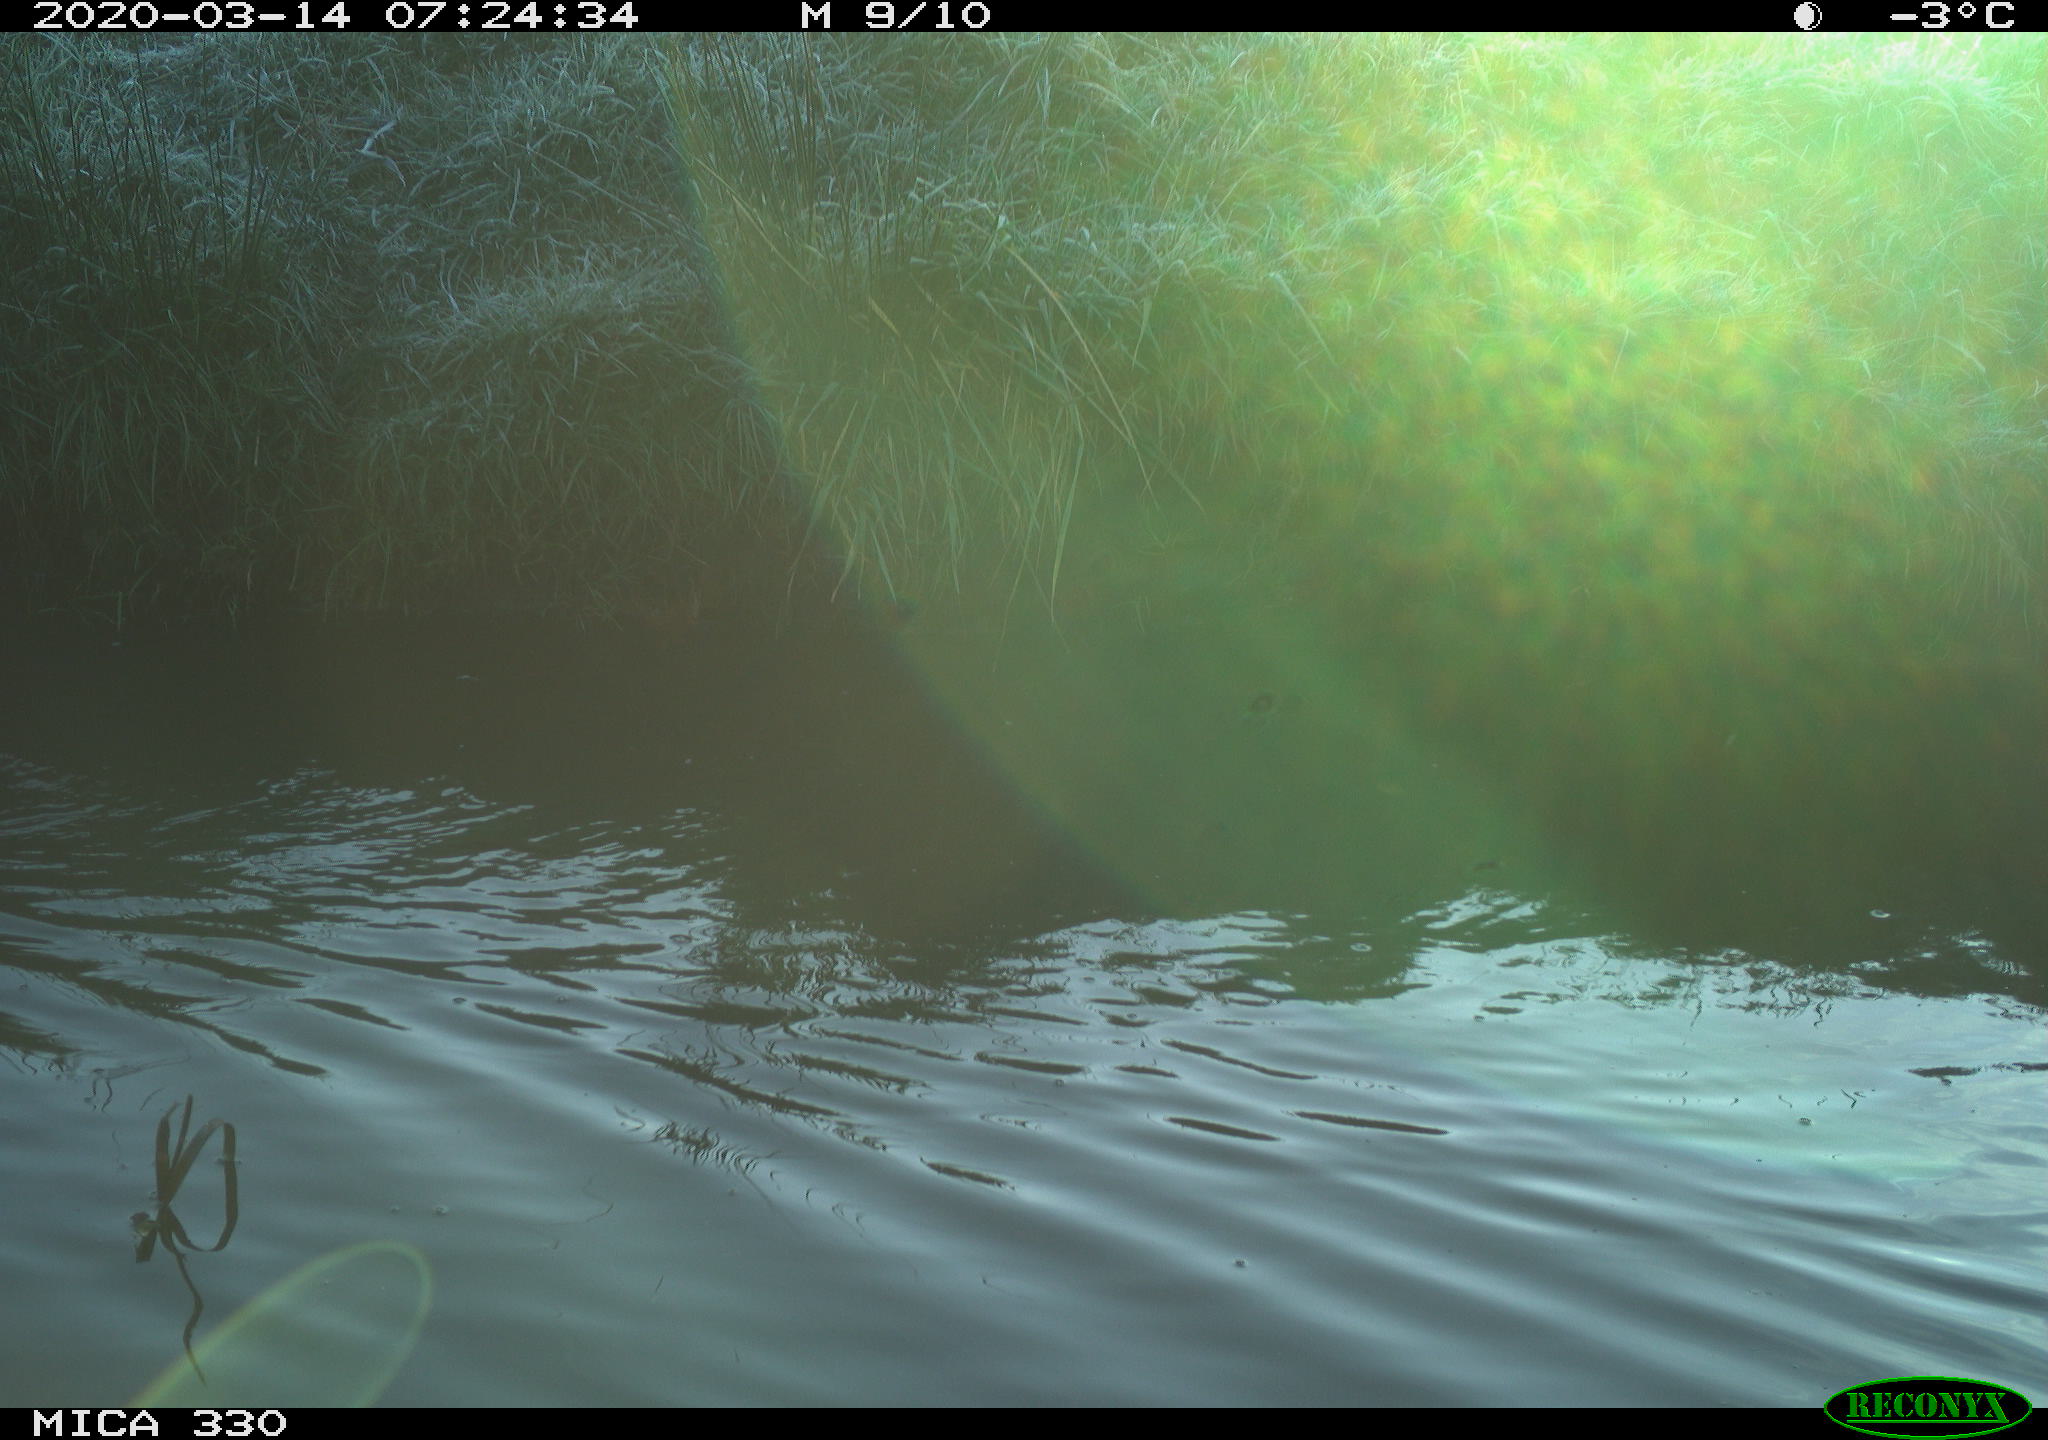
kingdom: Animalia
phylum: Chordata
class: Aves
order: Anseriformes
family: Anatidae
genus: Anas
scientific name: Anas platyrhynchos
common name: Mallard
